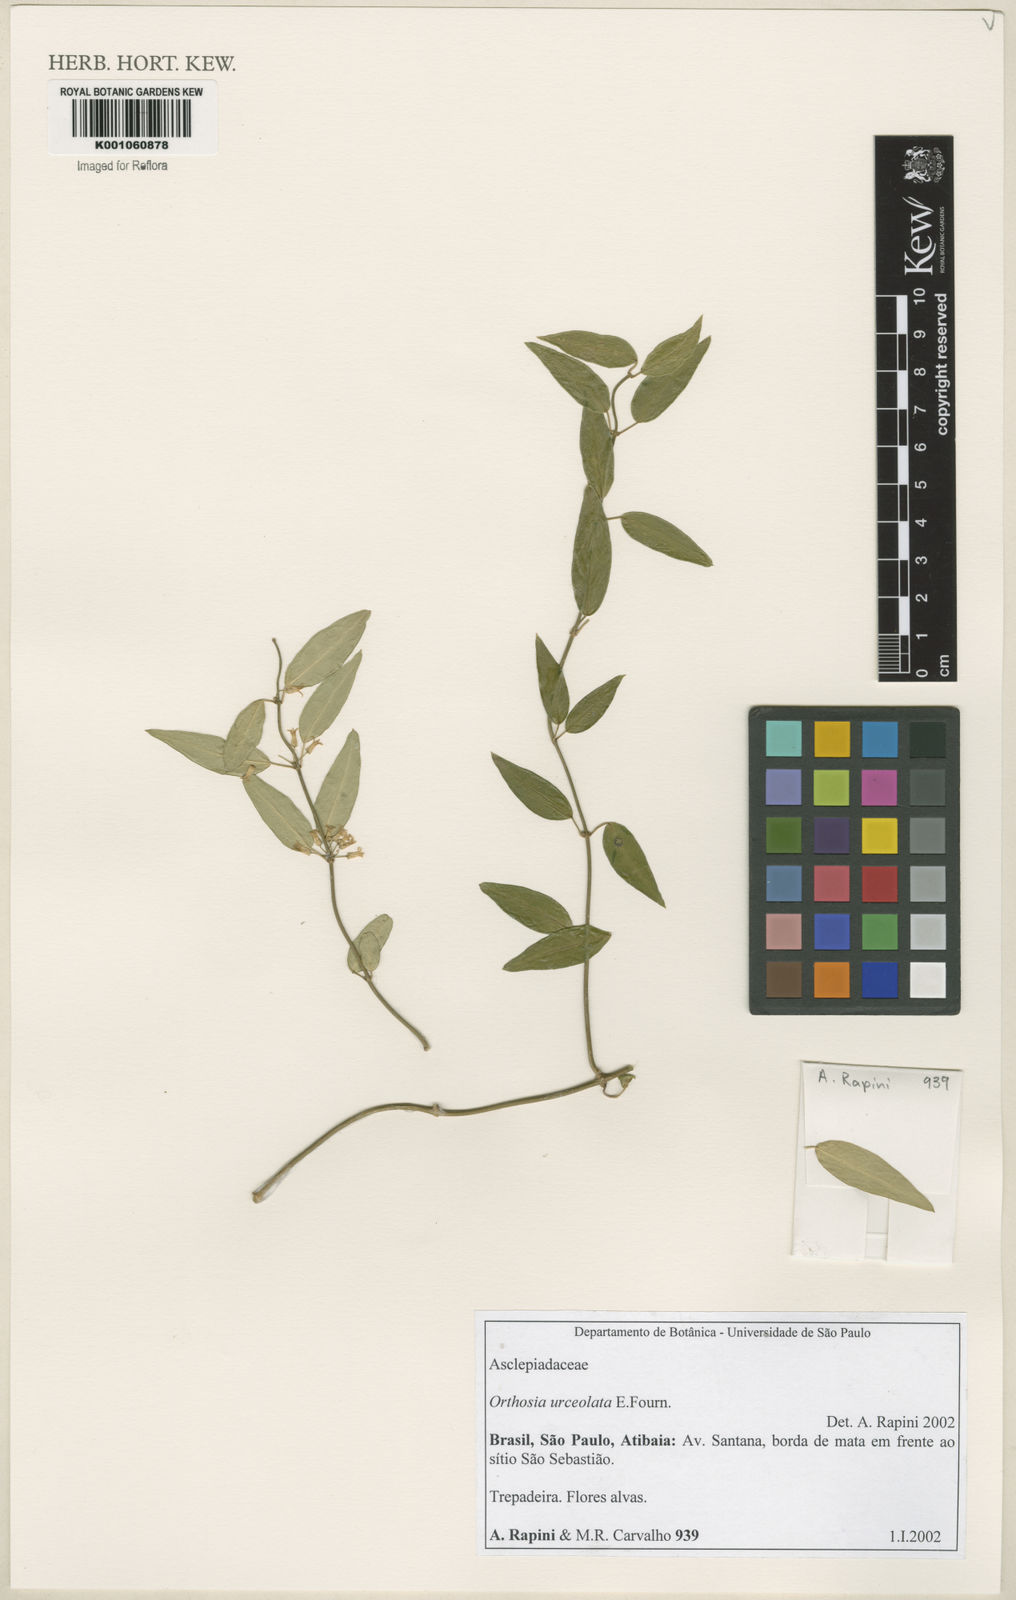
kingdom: Plantae
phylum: Tracheophyta
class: Magnoliopsida
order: Gentianales
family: Apocynaceae
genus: Orthosia
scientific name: Orthosia urceolata
